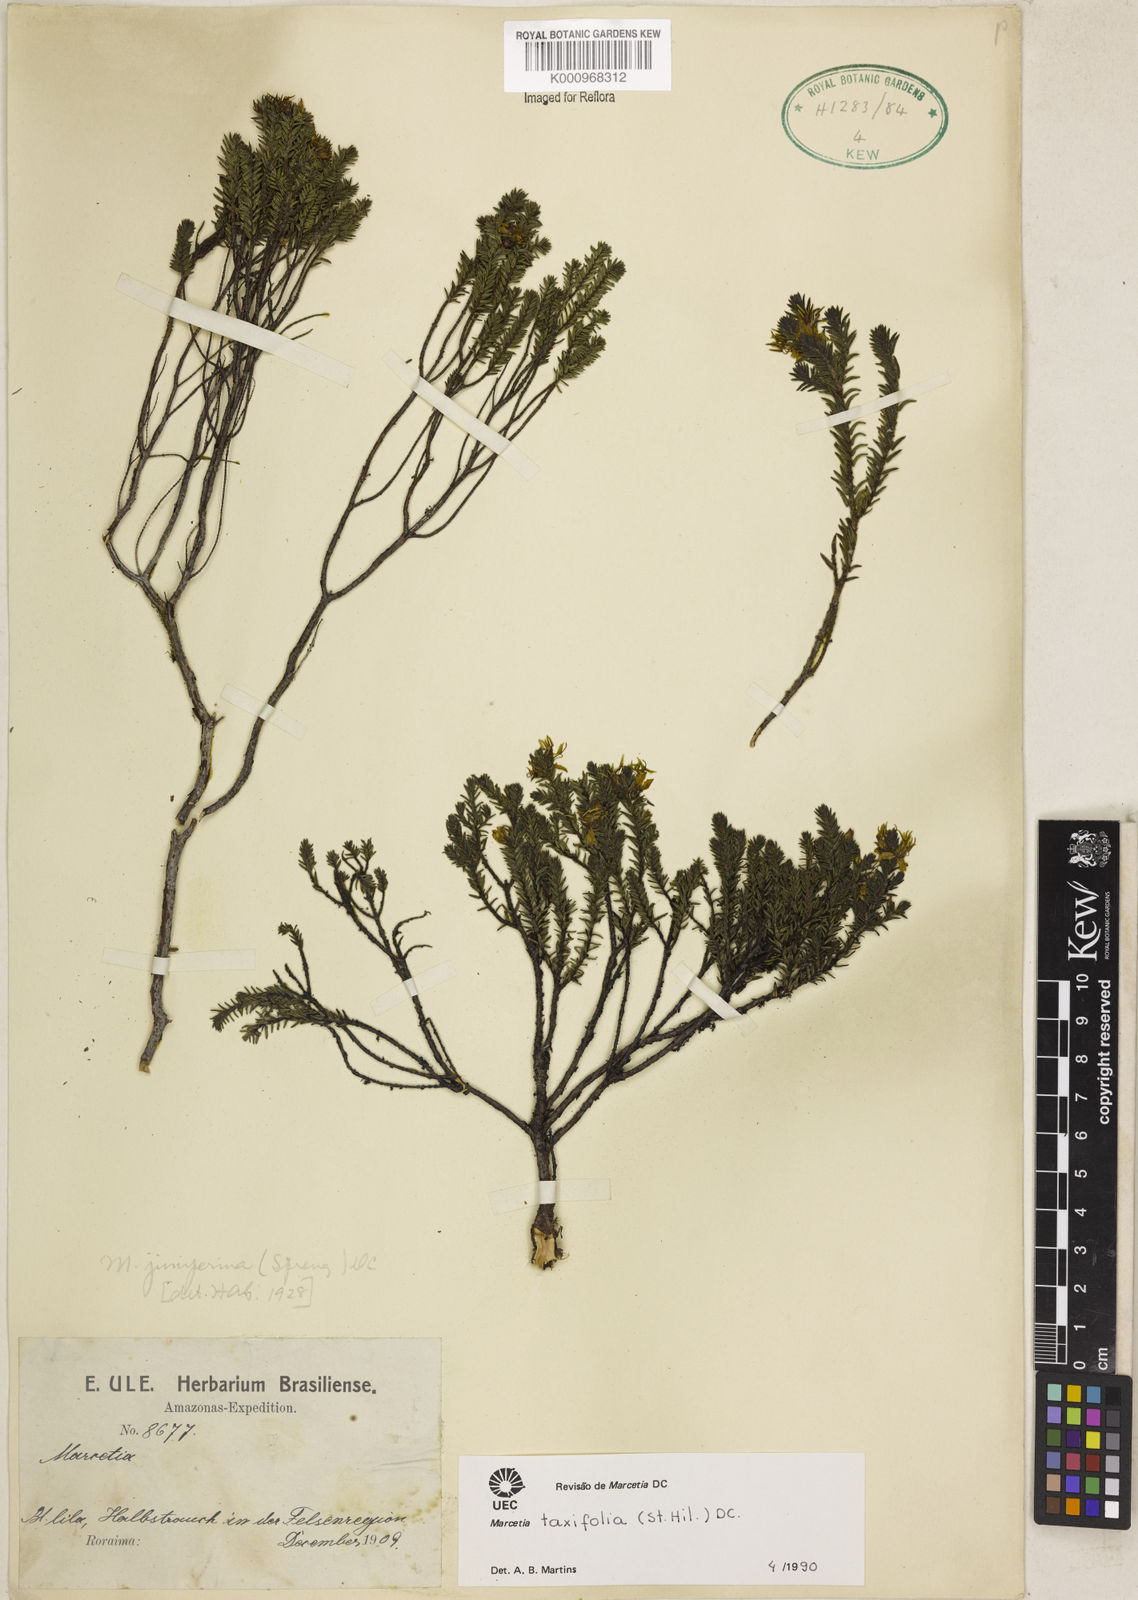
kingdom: Plantae
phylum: Tracheophyta
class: Magnoliopsida
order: Myrtales
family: Melastomataceae
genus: Marcetia
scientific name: Marcetia taxifolia
